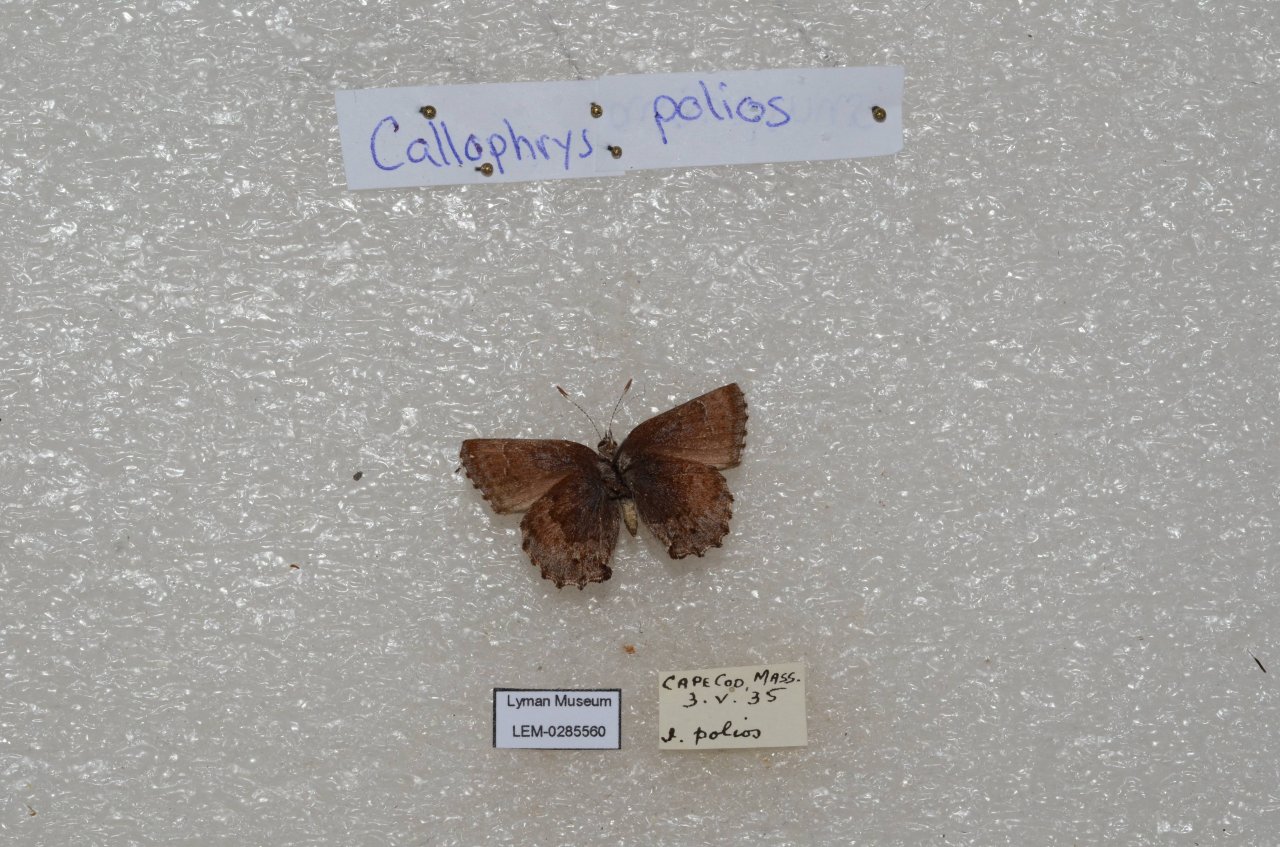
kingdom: Animalia
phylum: Arthropoda
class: Insecta
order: Lepidoptera
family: Lycaenidae
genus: Callophrys
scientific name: Callophrys polios
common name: Hoary Elfin
